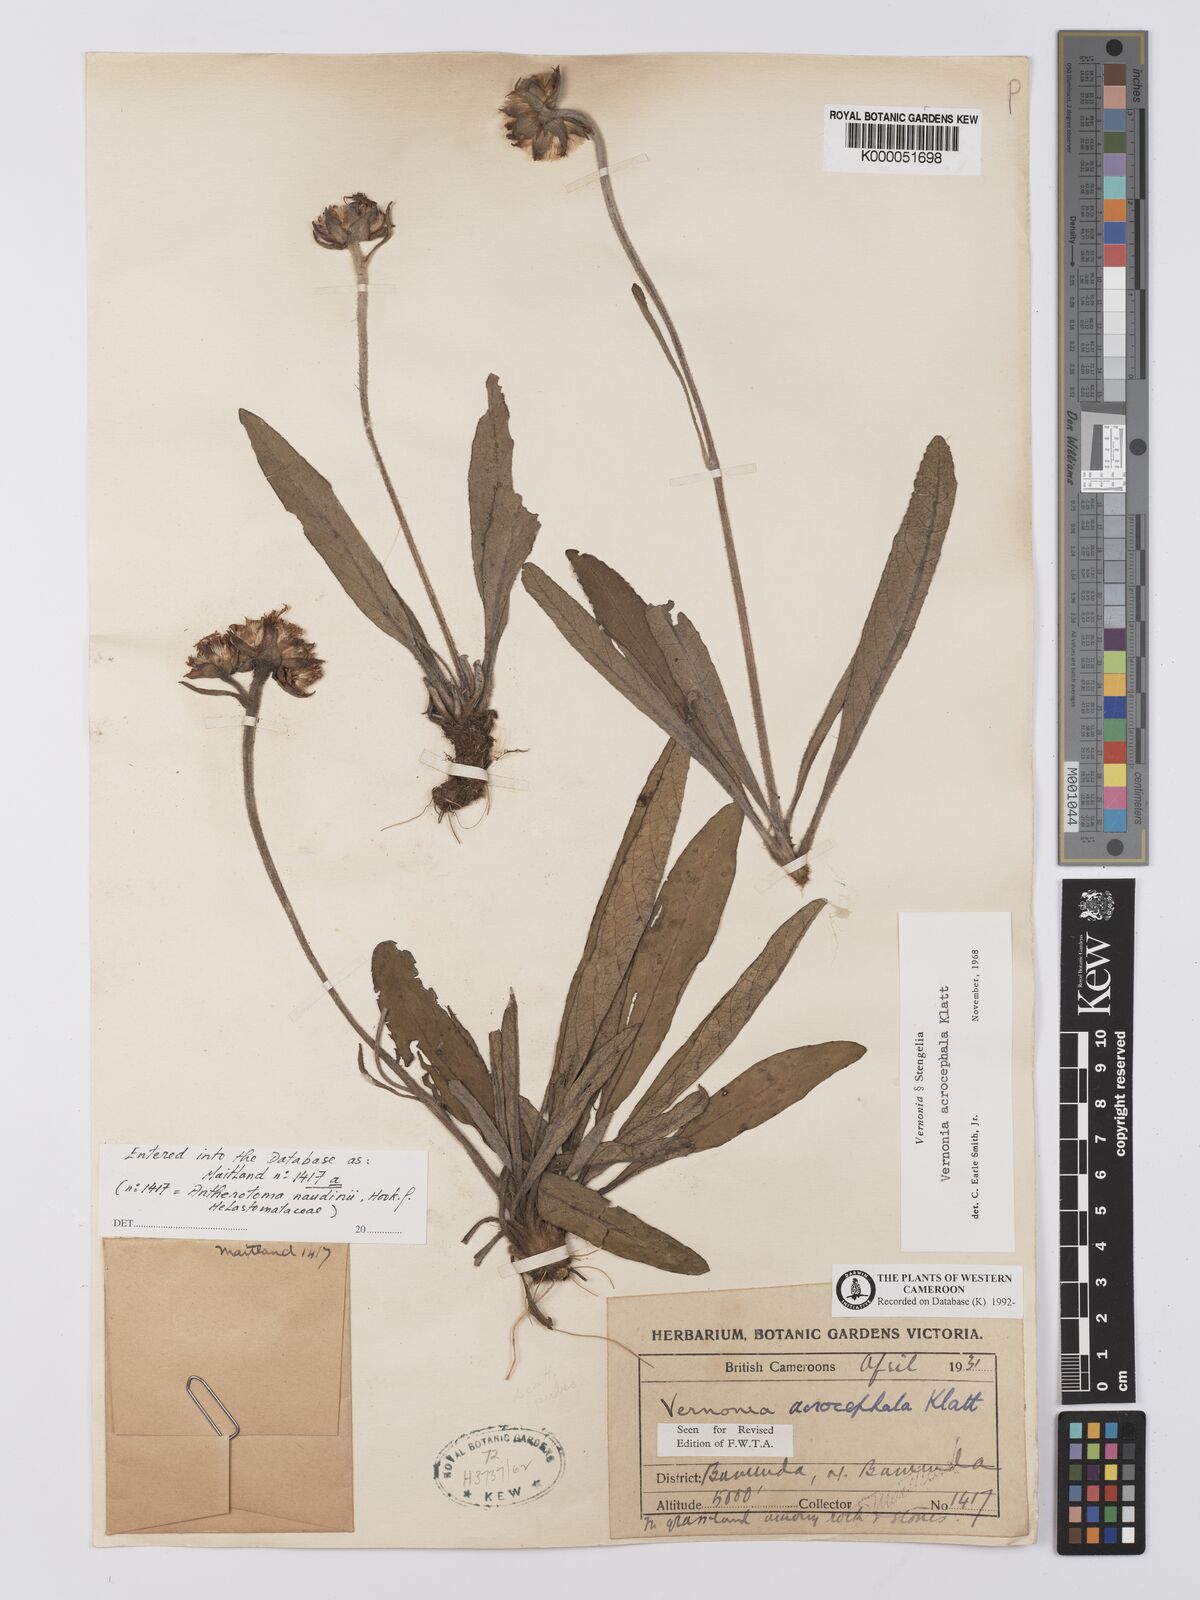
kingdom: Plantae
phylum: Tracheophyta
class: Magnoliopsida
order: Asterales
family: Asteraceae
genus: Vernonella
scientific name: Vernonella acrocephala
